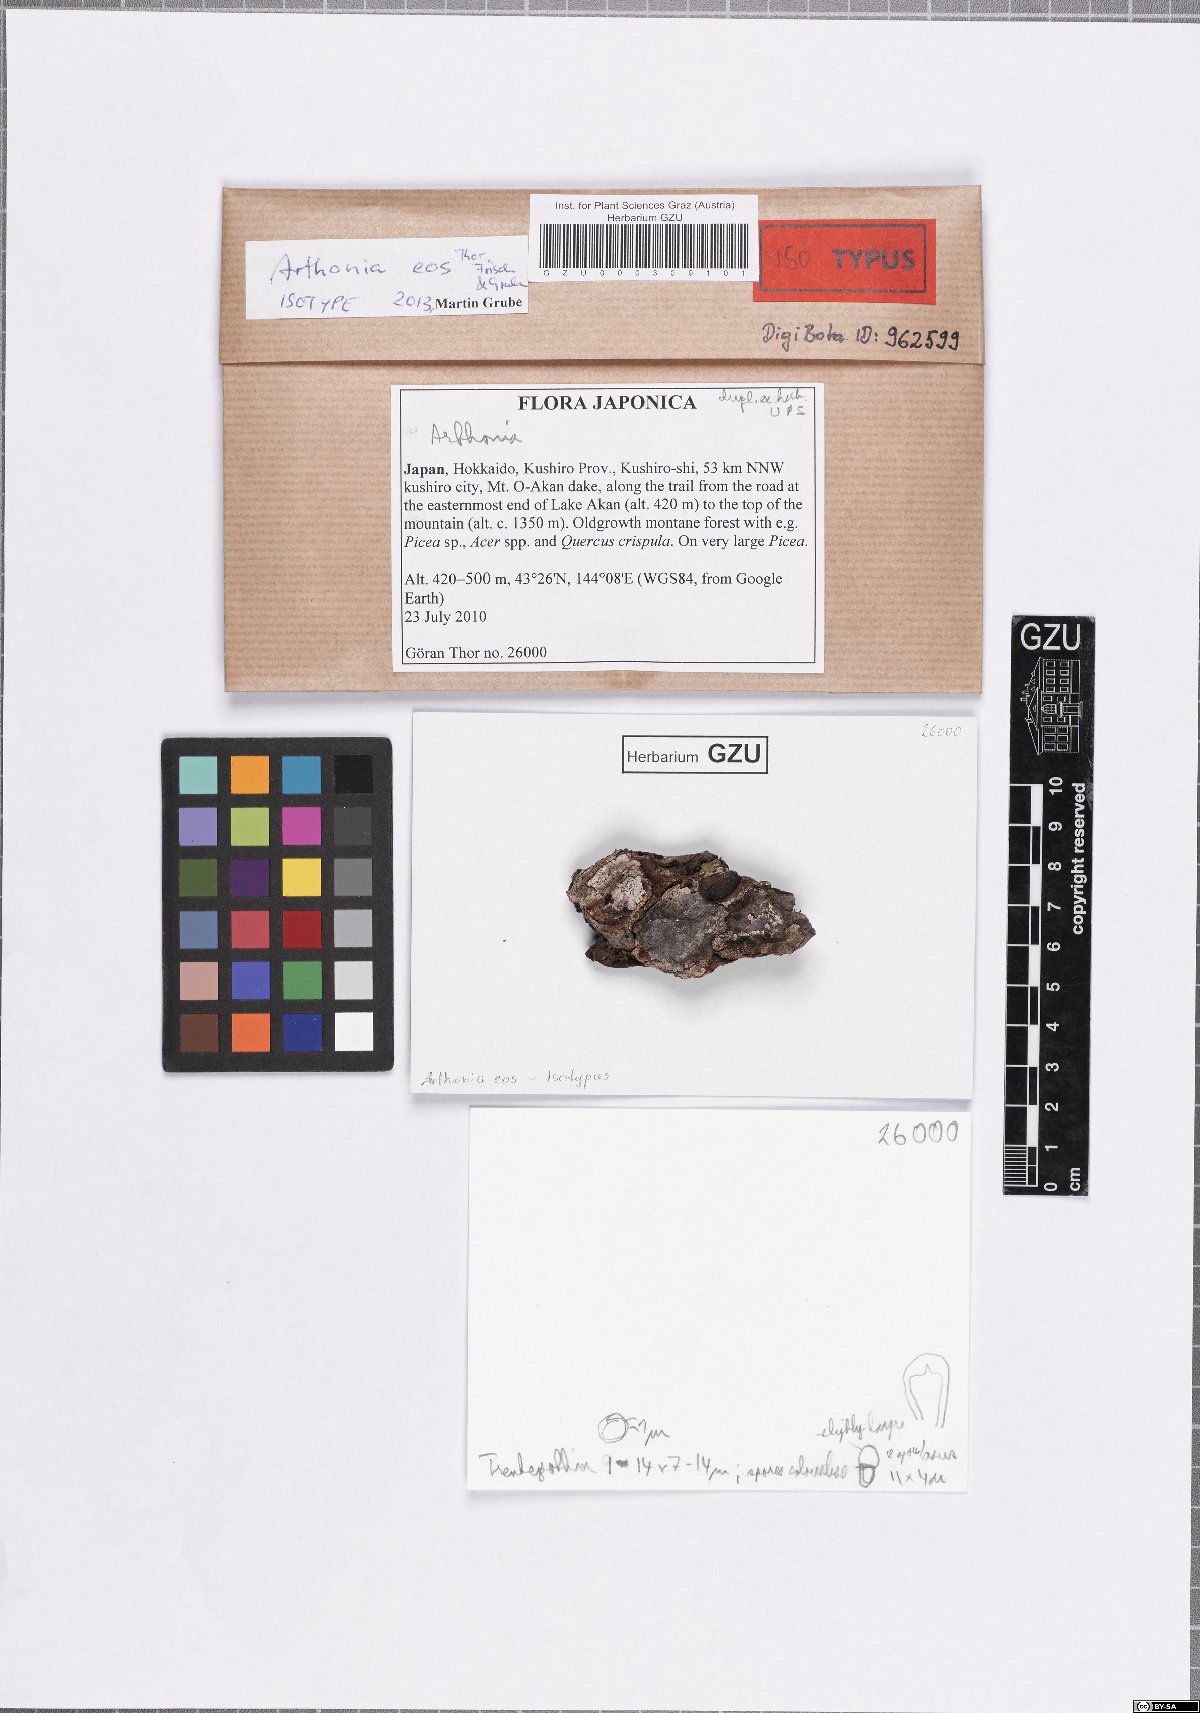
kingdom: Fungi
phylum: Ascomycota
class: Arthoniomycetes
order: Arthoniales
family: Arthoniaceae
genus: Coniarthonia
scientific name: Coniarthonia eos
